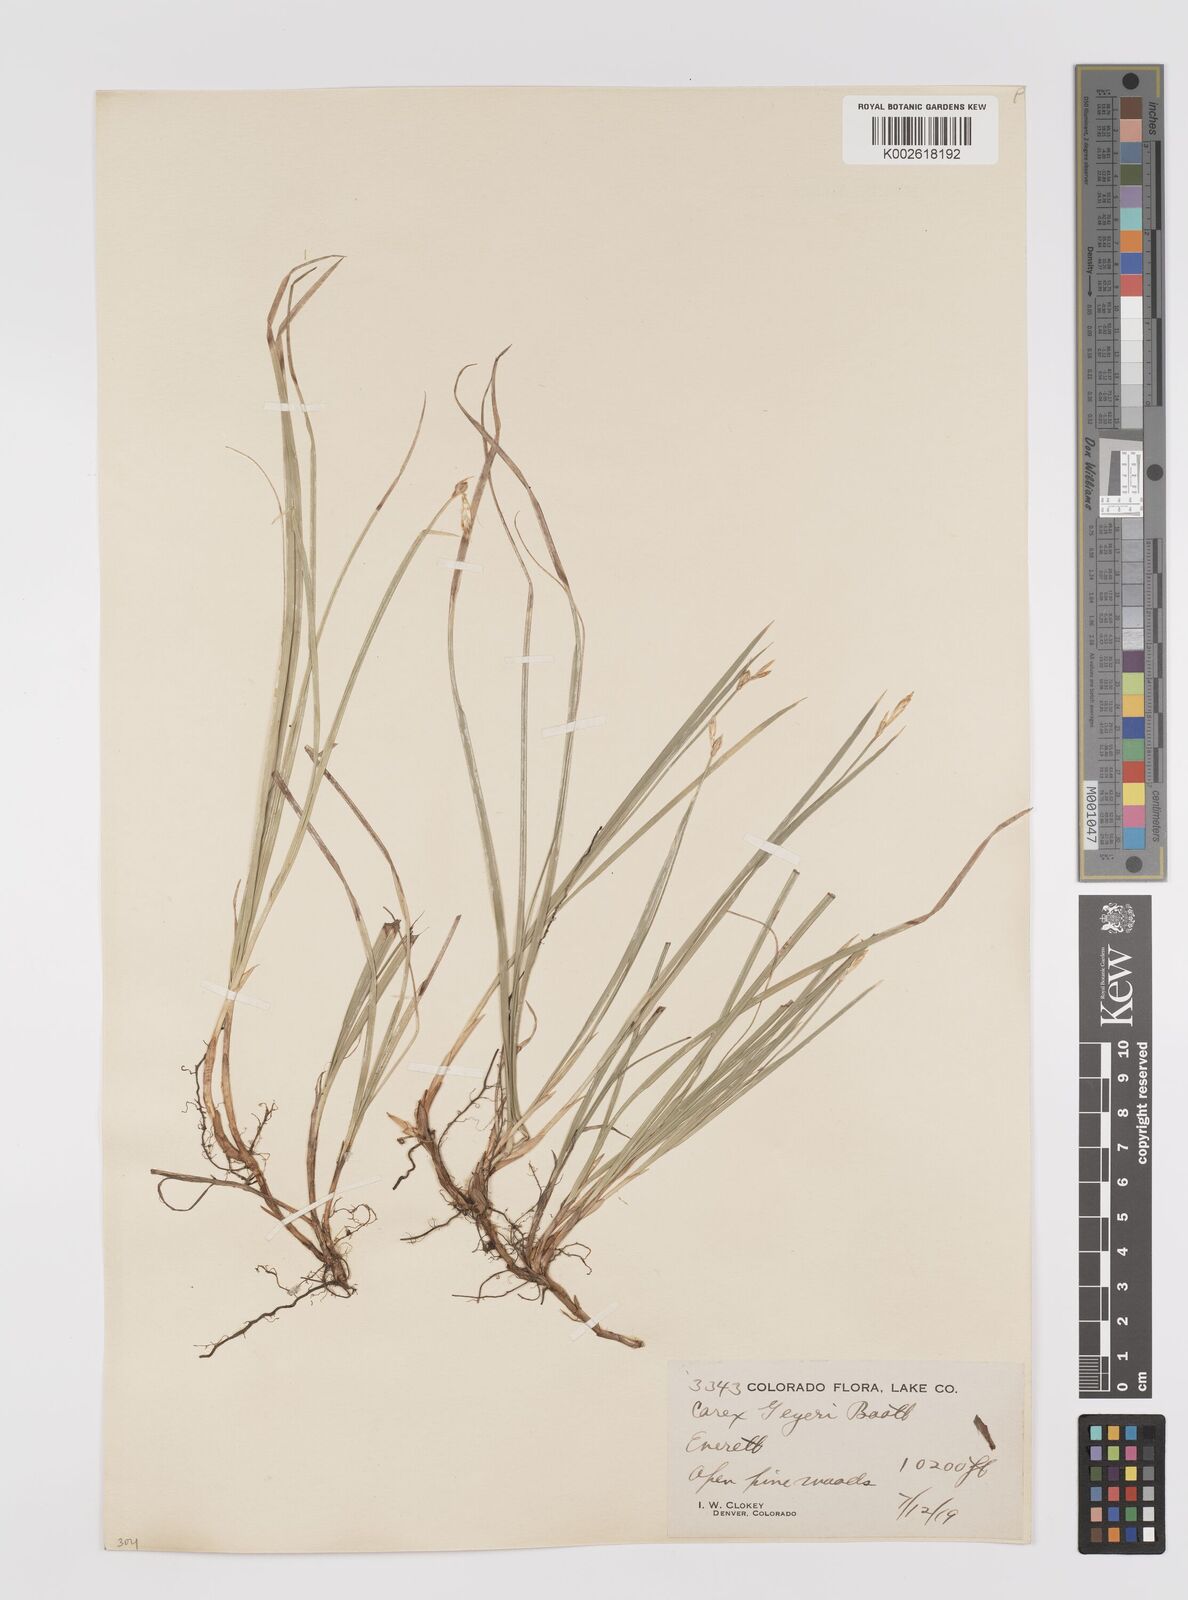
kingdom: Plantae
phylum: Tracheophyta
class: Liliopsida
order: Poales
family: Cyperaceae
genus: Carex
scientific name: Carex geyeri
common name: Elk sedge
